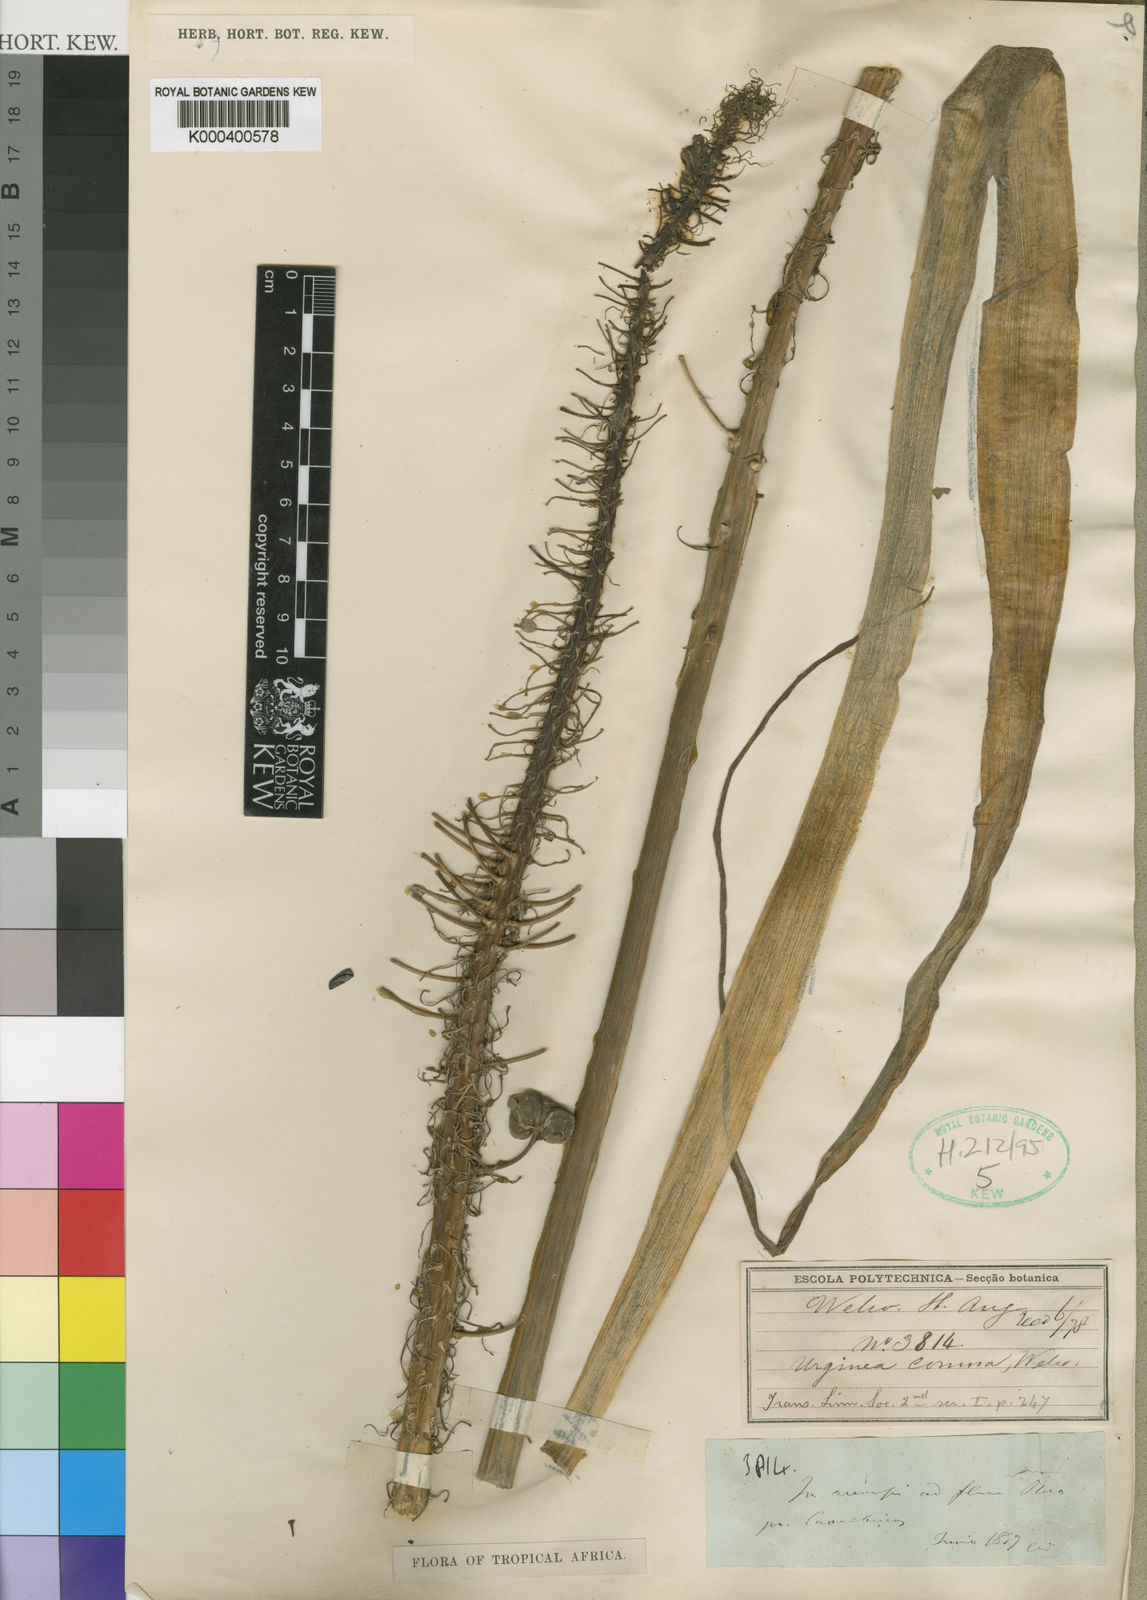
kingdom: Plantae
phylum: Tracheophyta
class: Liliopsida
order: Asparagales
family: Asparagaceae
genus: Albuca
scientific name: Albuca comosa
